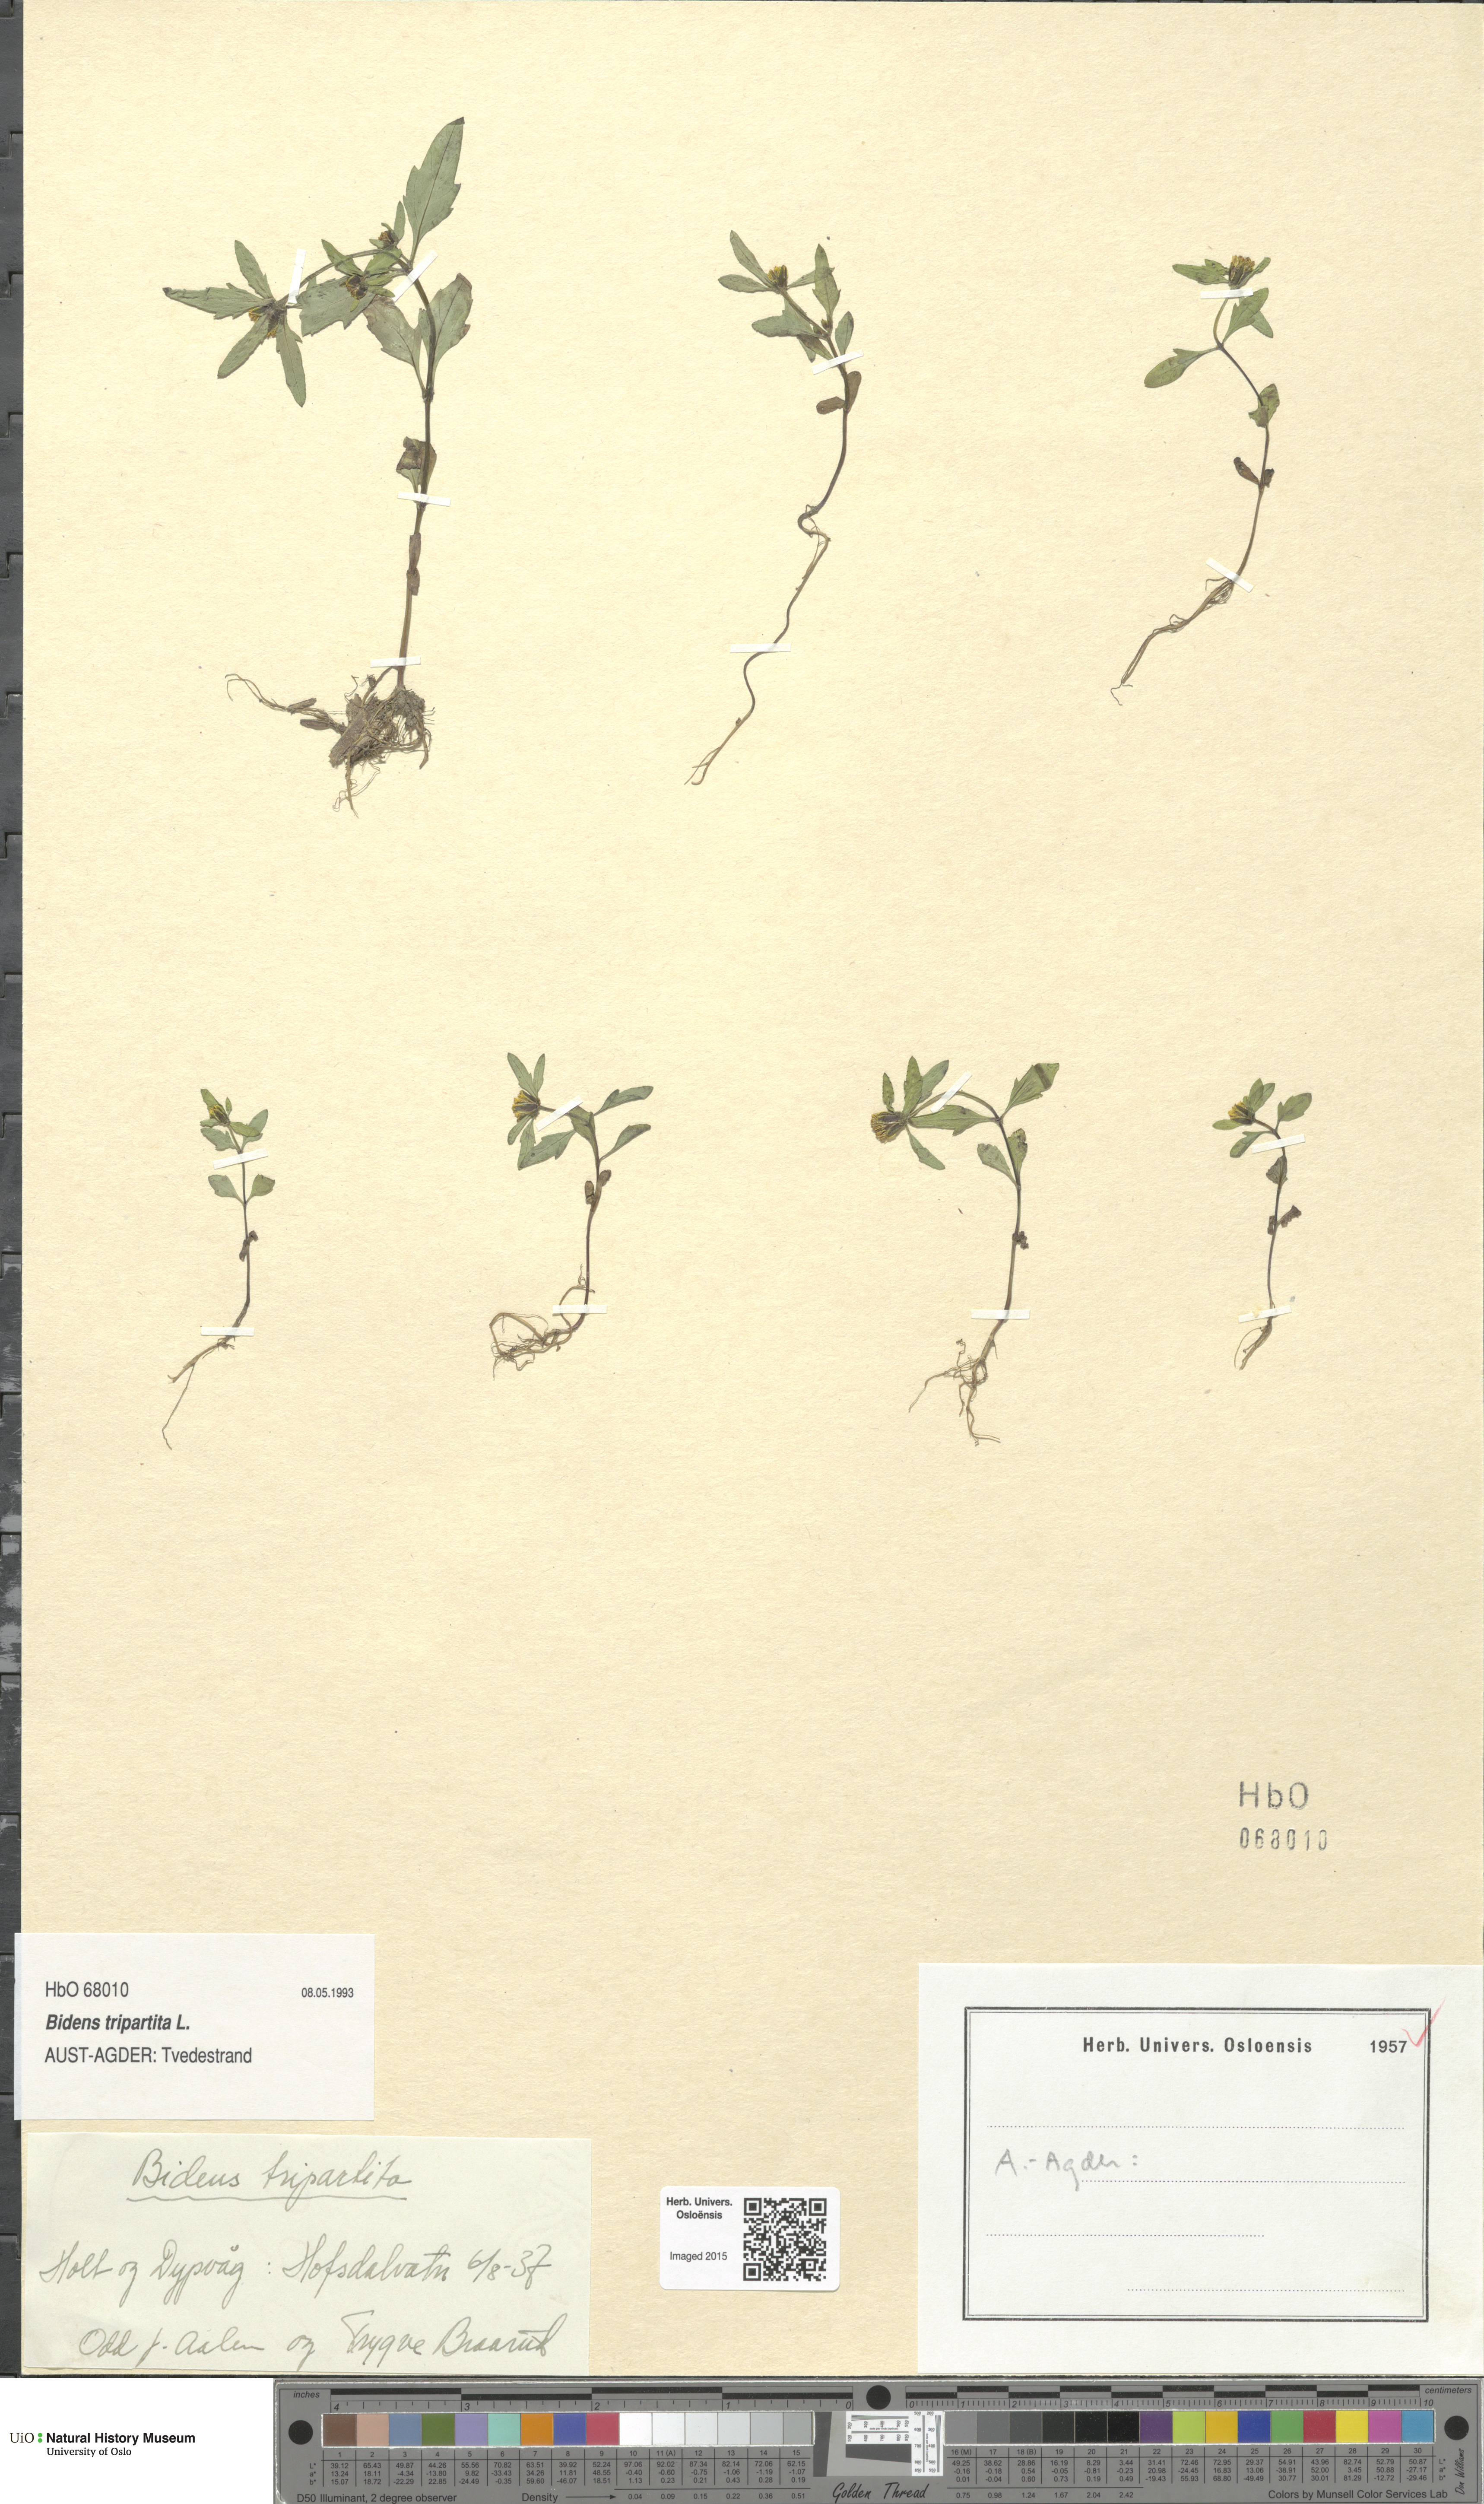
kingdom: Plantae
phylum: Tracheophyta
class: Magnoliopsida
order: Asterales
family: Asteraceae
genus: Bidens
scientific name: Bidens tripartita
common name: Trifid bur-marigold
